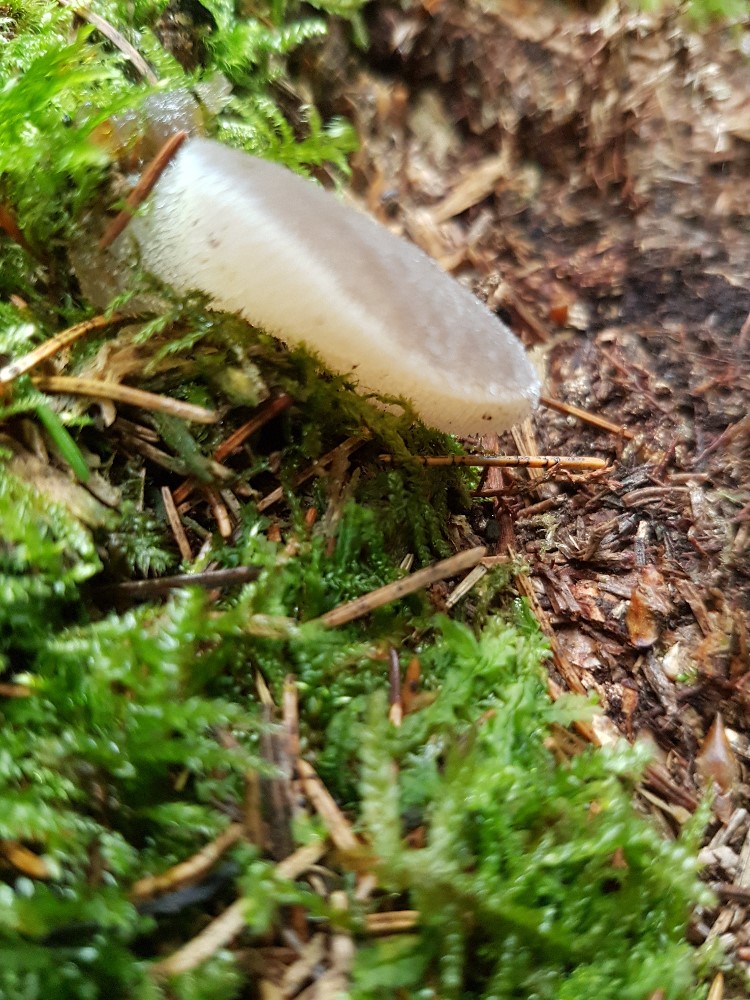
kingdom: Fungi
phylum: Basidiomycota
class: Tremellomycetes
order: Tremellales
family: Exidiaceae
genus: Pseudohydnum
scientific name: Pseudohydnum
